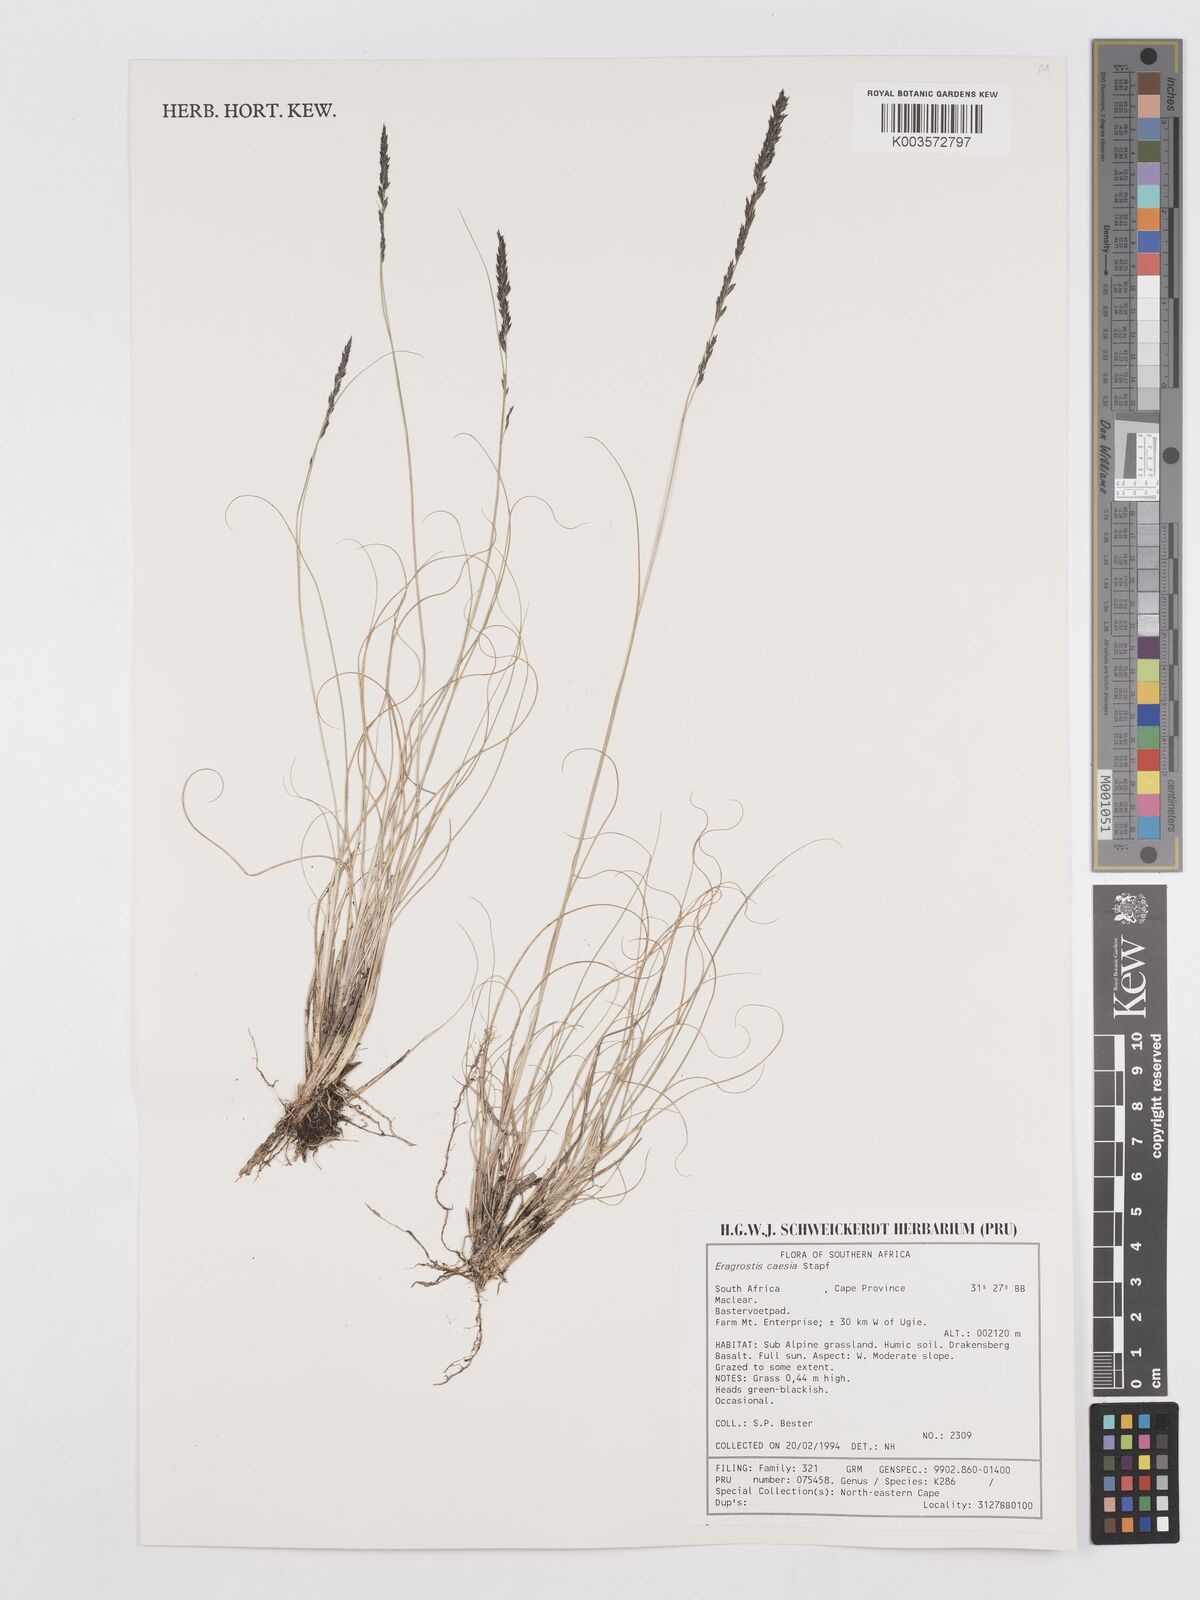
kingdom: Plantae
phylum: Tracheophyta
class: Liliopsida
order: Poales
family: Poaceae
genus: Eragrostis
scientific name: Eragrostis caesia
